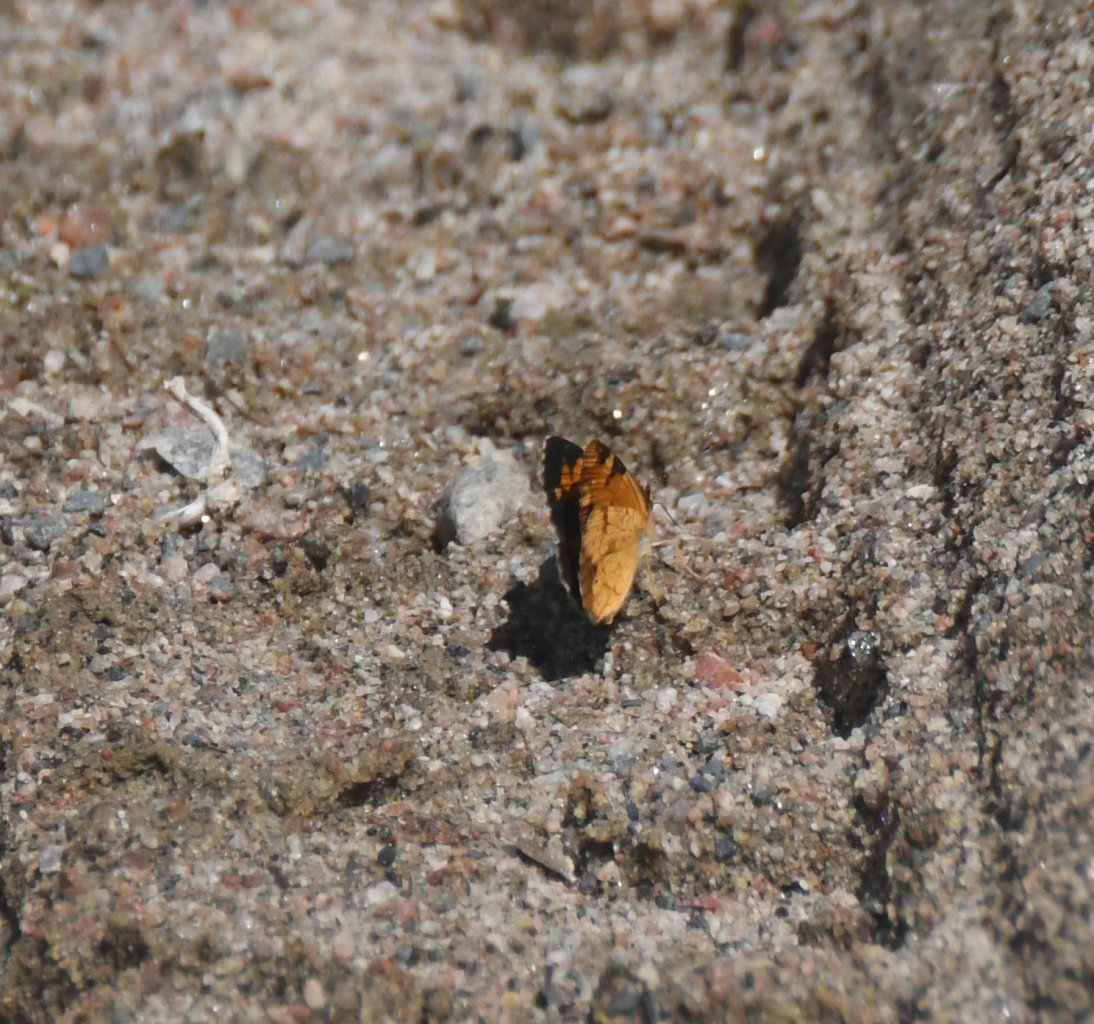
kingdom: Animalia
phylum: Arthropoda
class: Insecta
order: Lepidoptera
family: Nymphalidae
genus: Phyciodes
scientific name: Phyciodes tharos
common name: Northern Crescent
